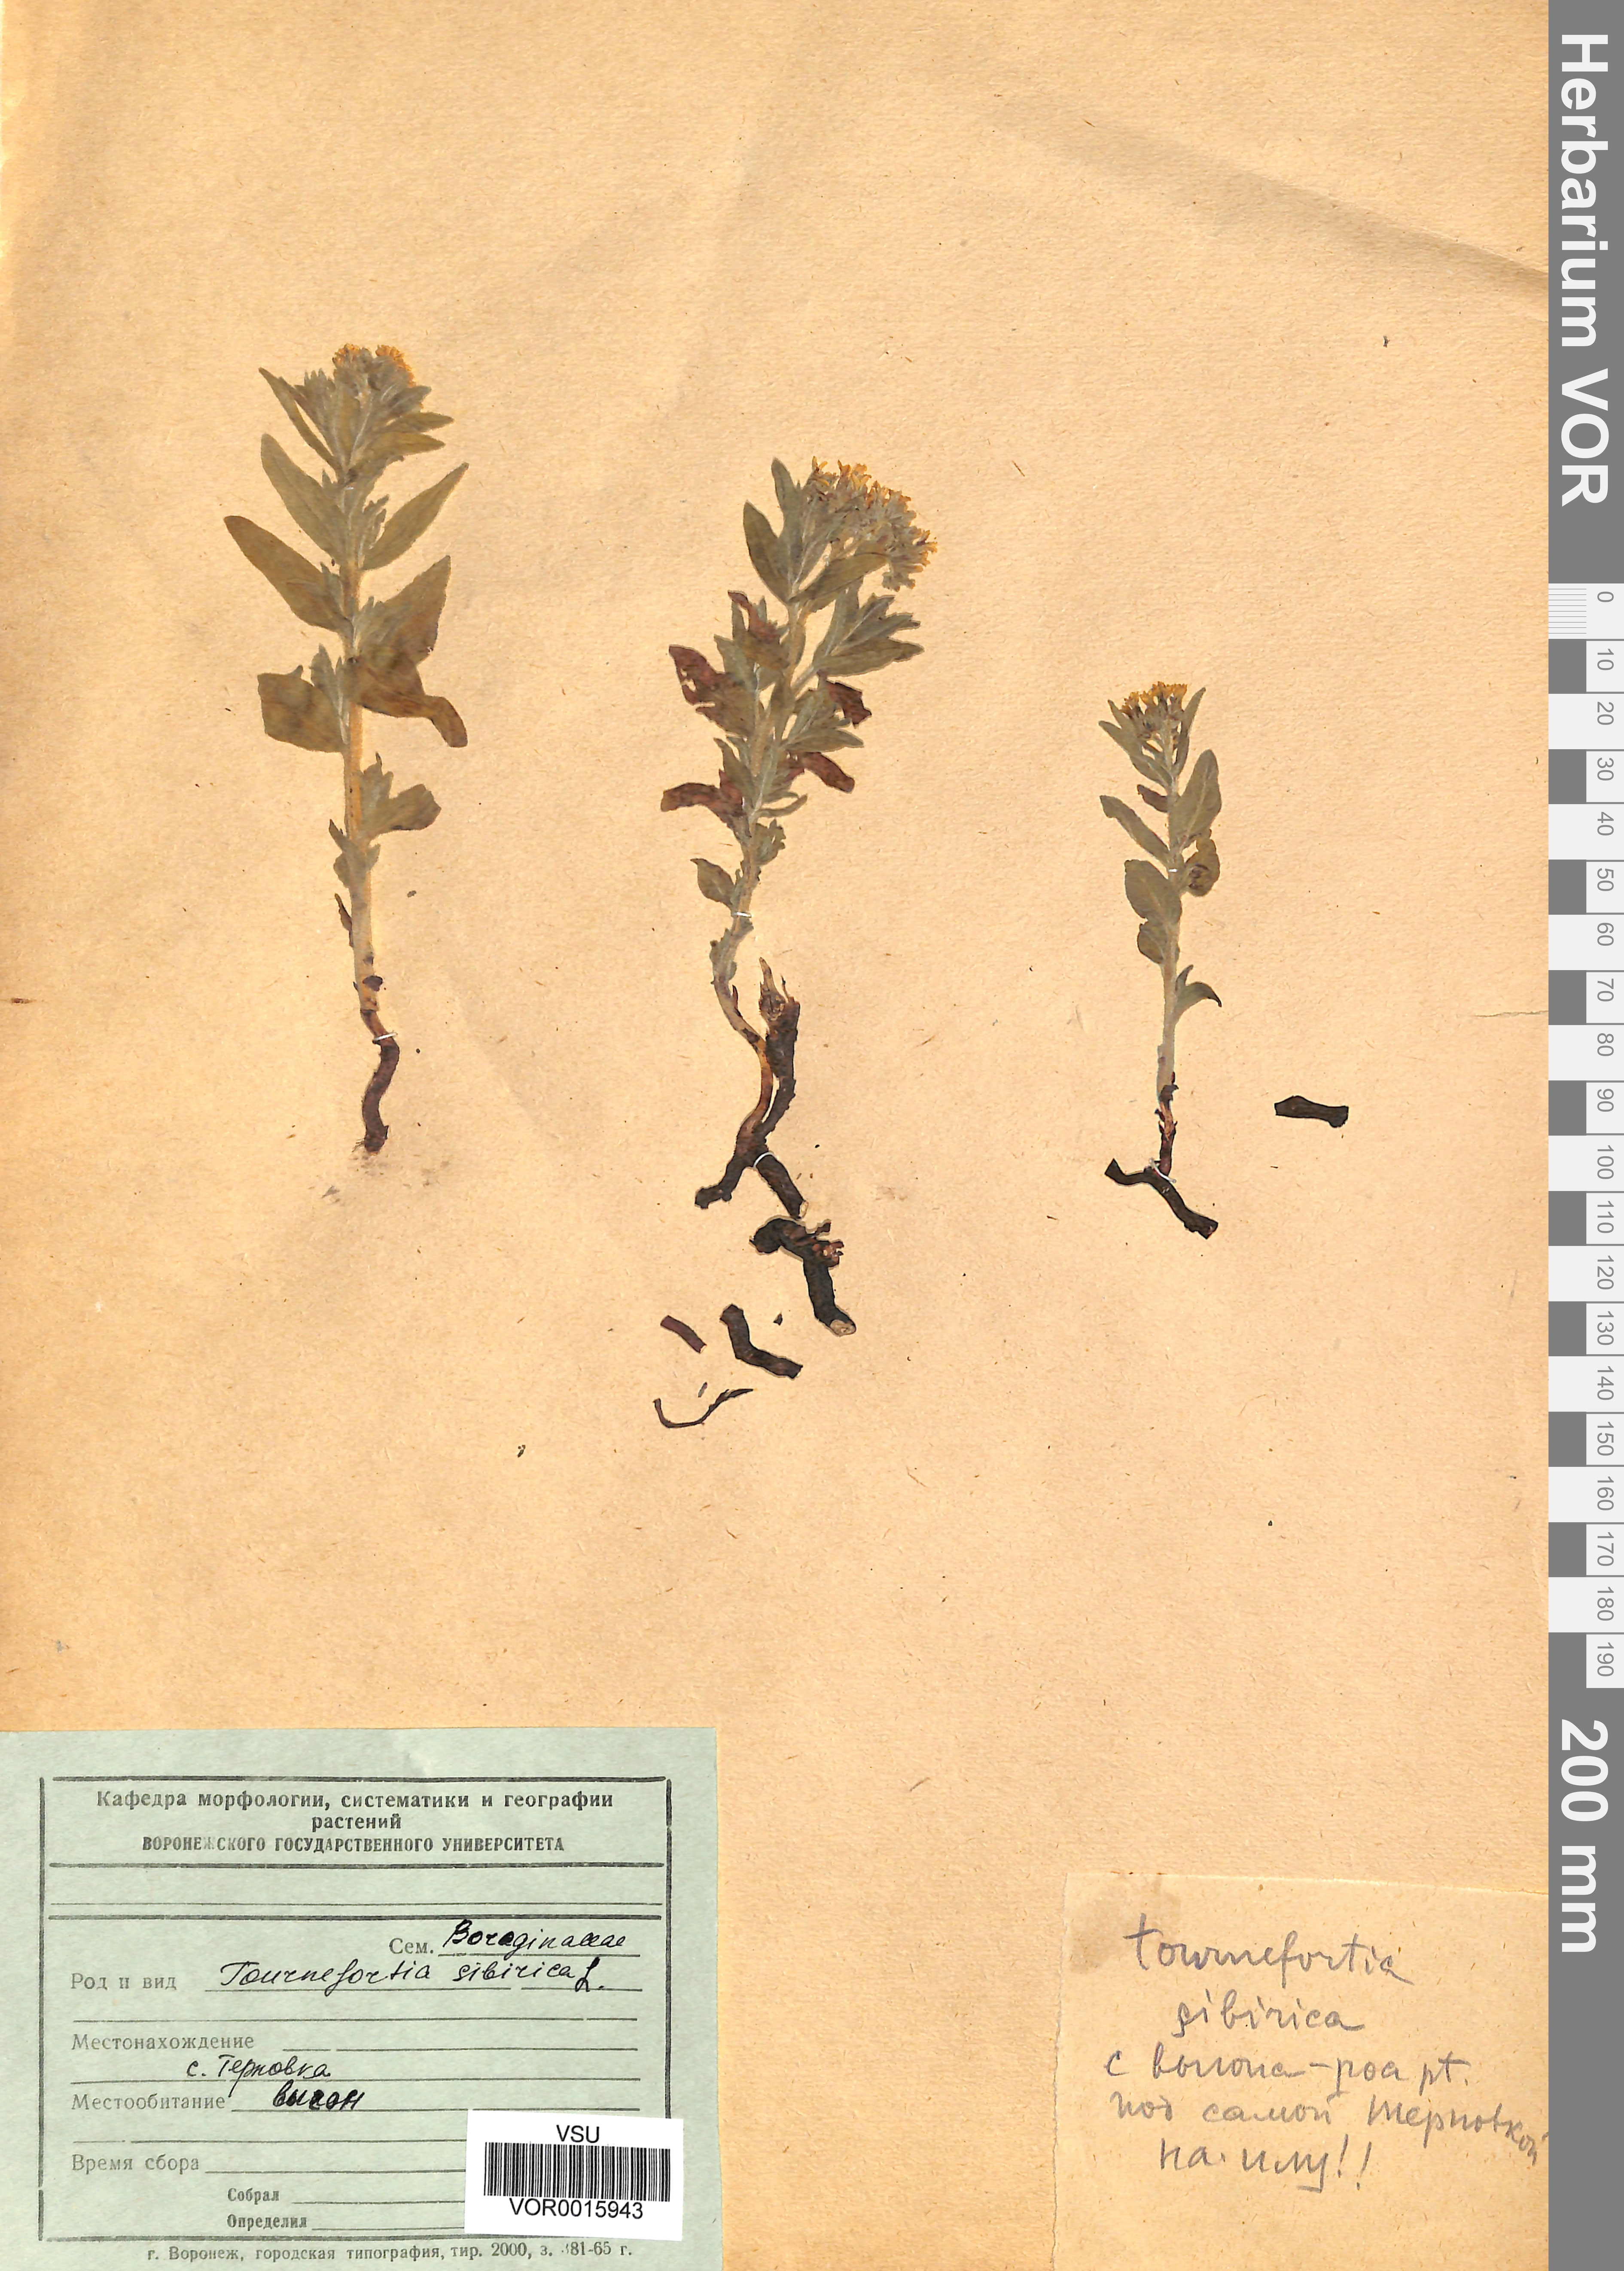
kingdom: Plantae
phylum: Tracheophyta
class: Magnoliopsida
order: Boraginales
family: Heliotropiaceae
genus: Tournefortia
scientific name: Tournefortia sibirica
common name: Siberian sea rosemary
